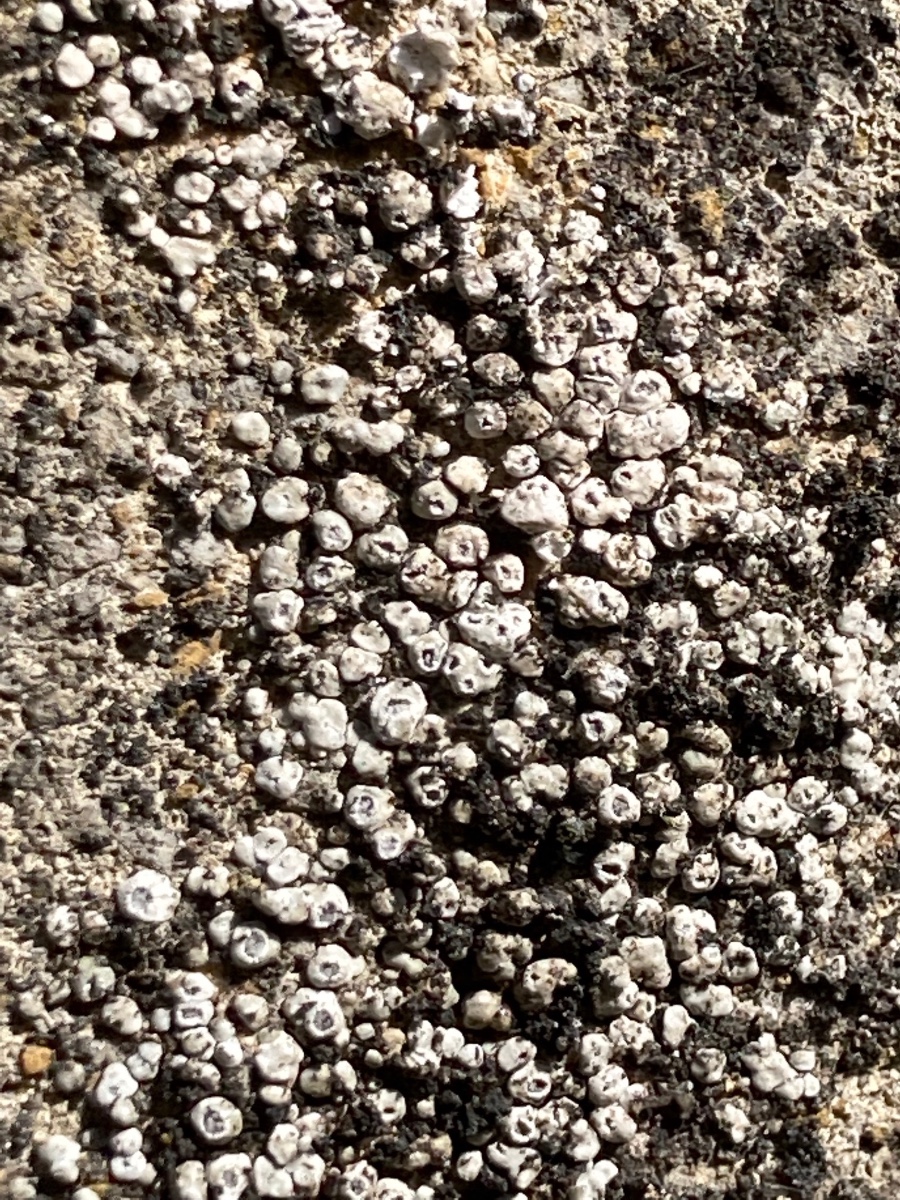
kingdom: Fungi
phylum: Ascomycota
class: Lecanoromycetes
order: Pertusariales
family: Megasporaceae
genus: Circinaria
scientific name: Circinaria contorta
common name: indviklet hulskivelav
